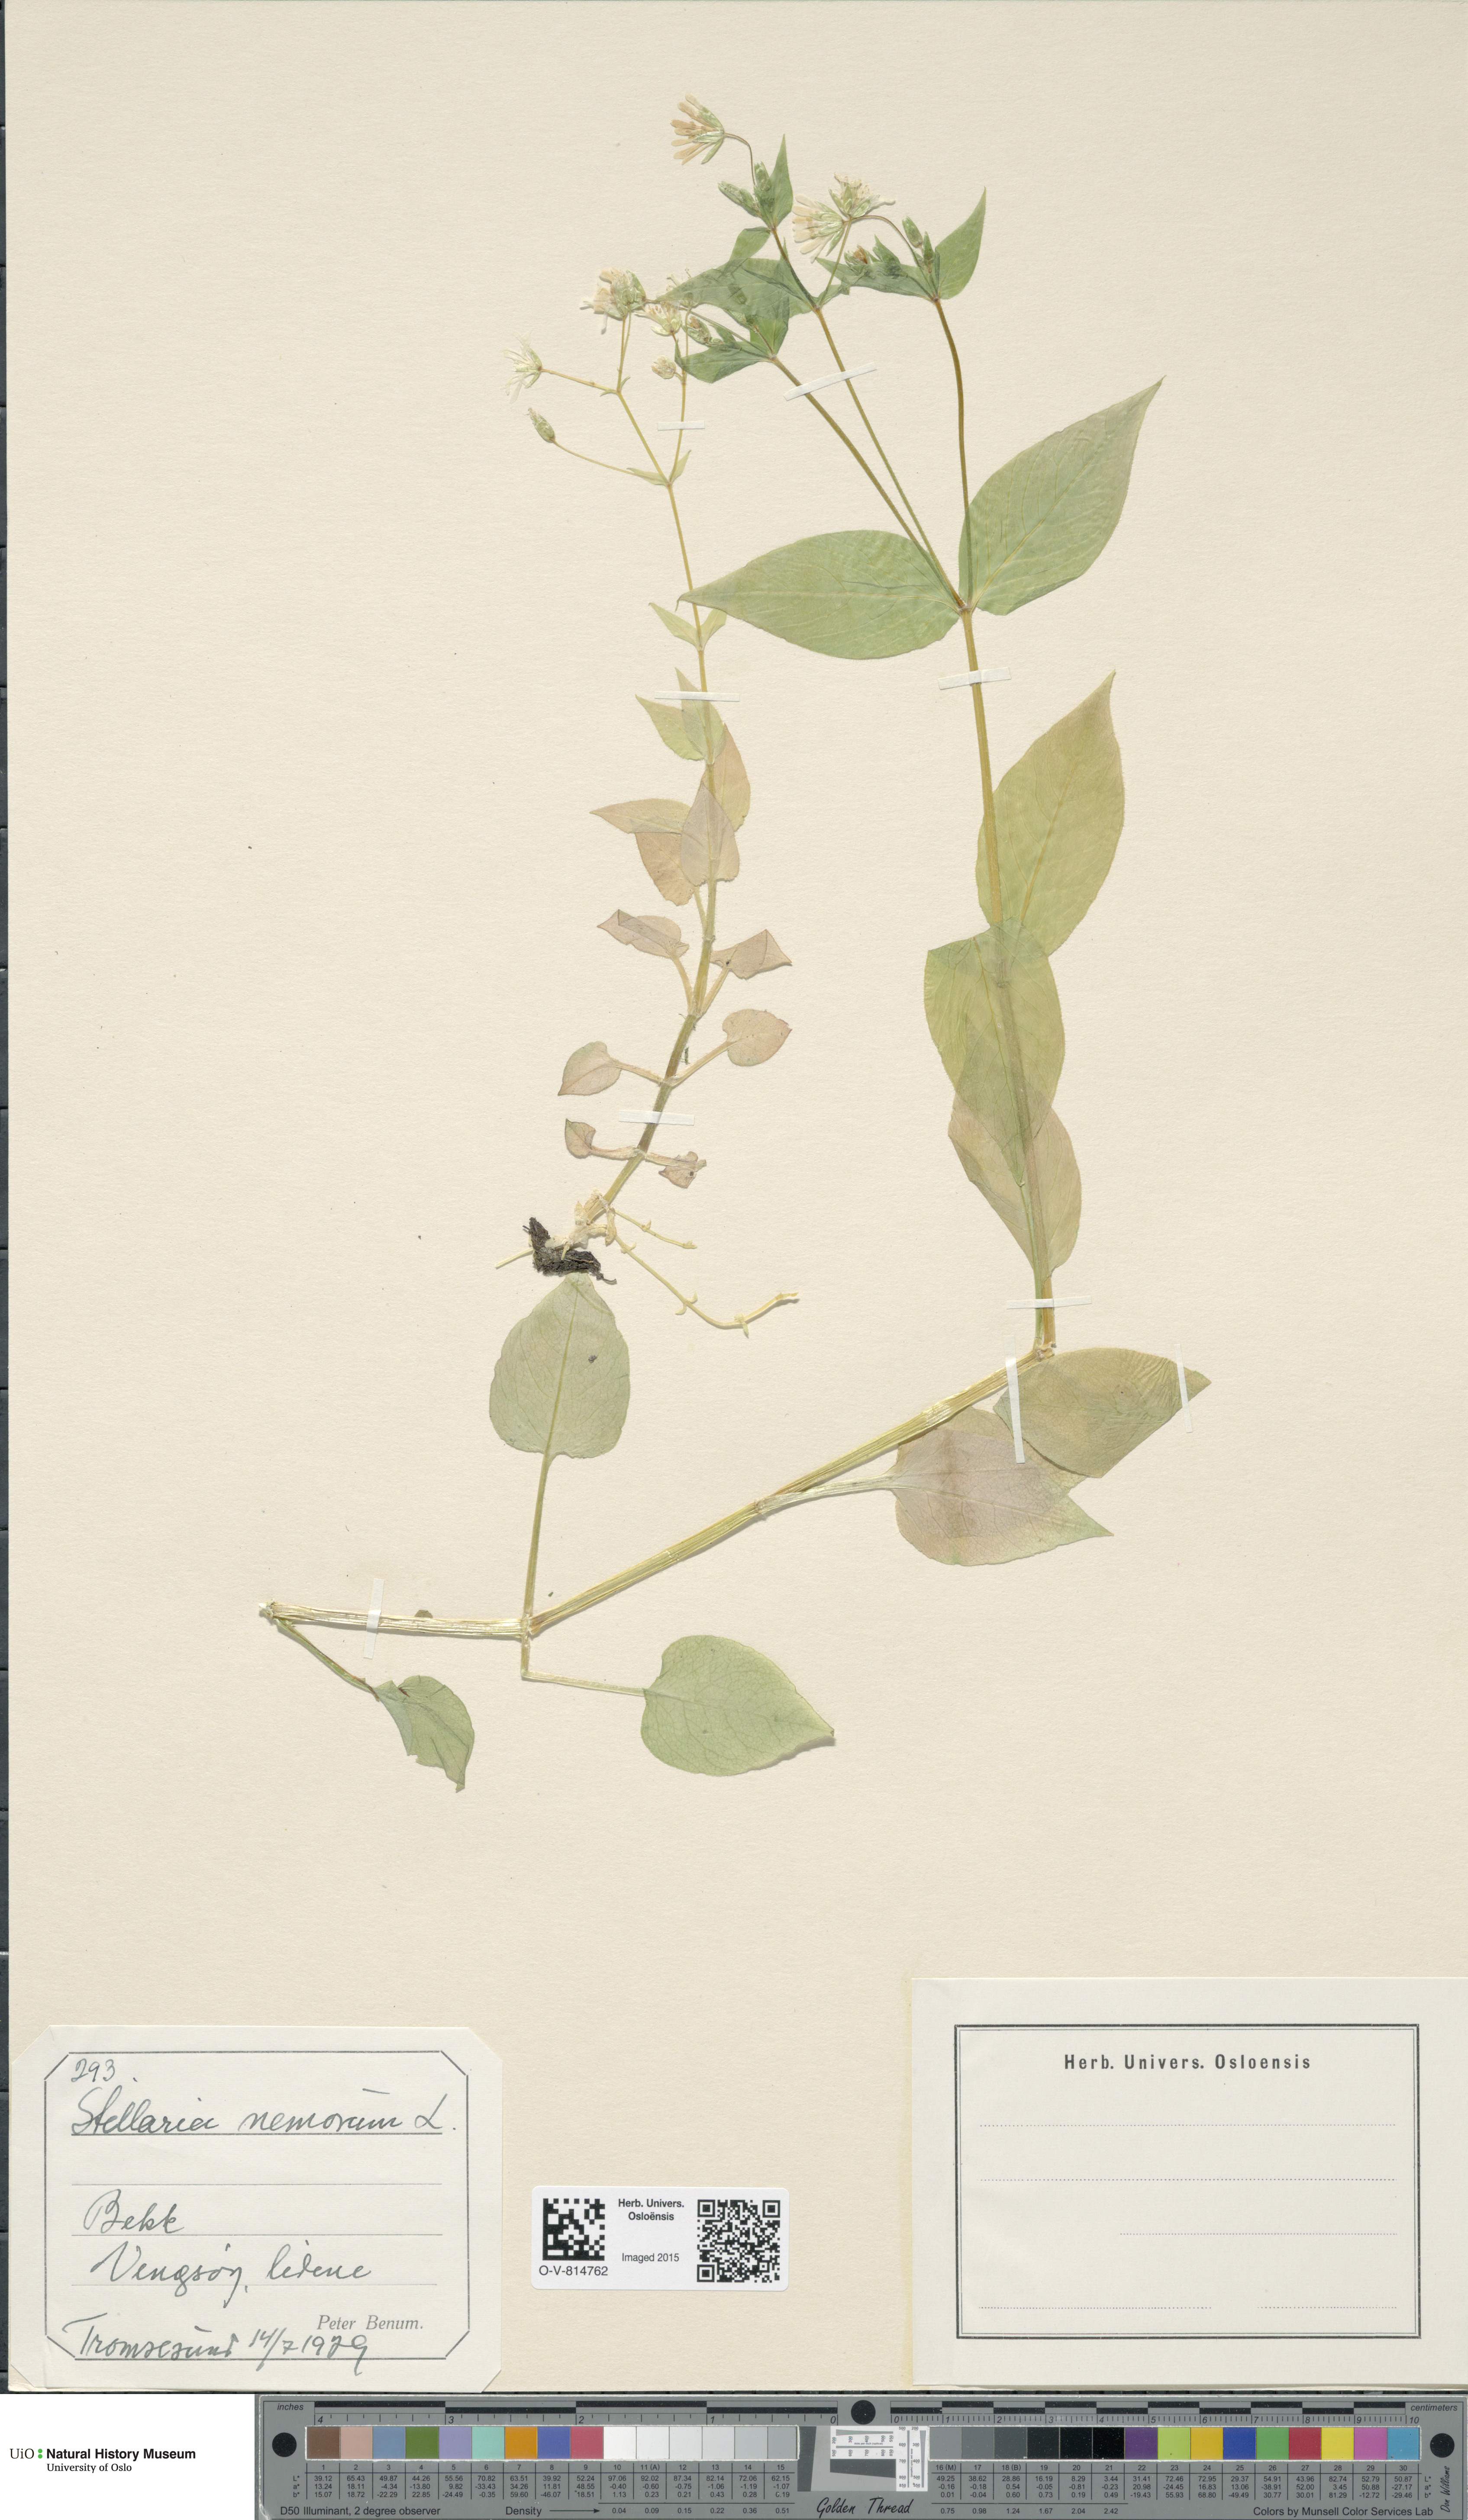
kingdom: Plantae
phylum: Tracheophyta
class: Magnoliopsida
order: Caryophyllales
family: Caryophyllaceae
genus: Stellaria
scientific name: Stellaria nemorum
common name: Wood stitchwort
